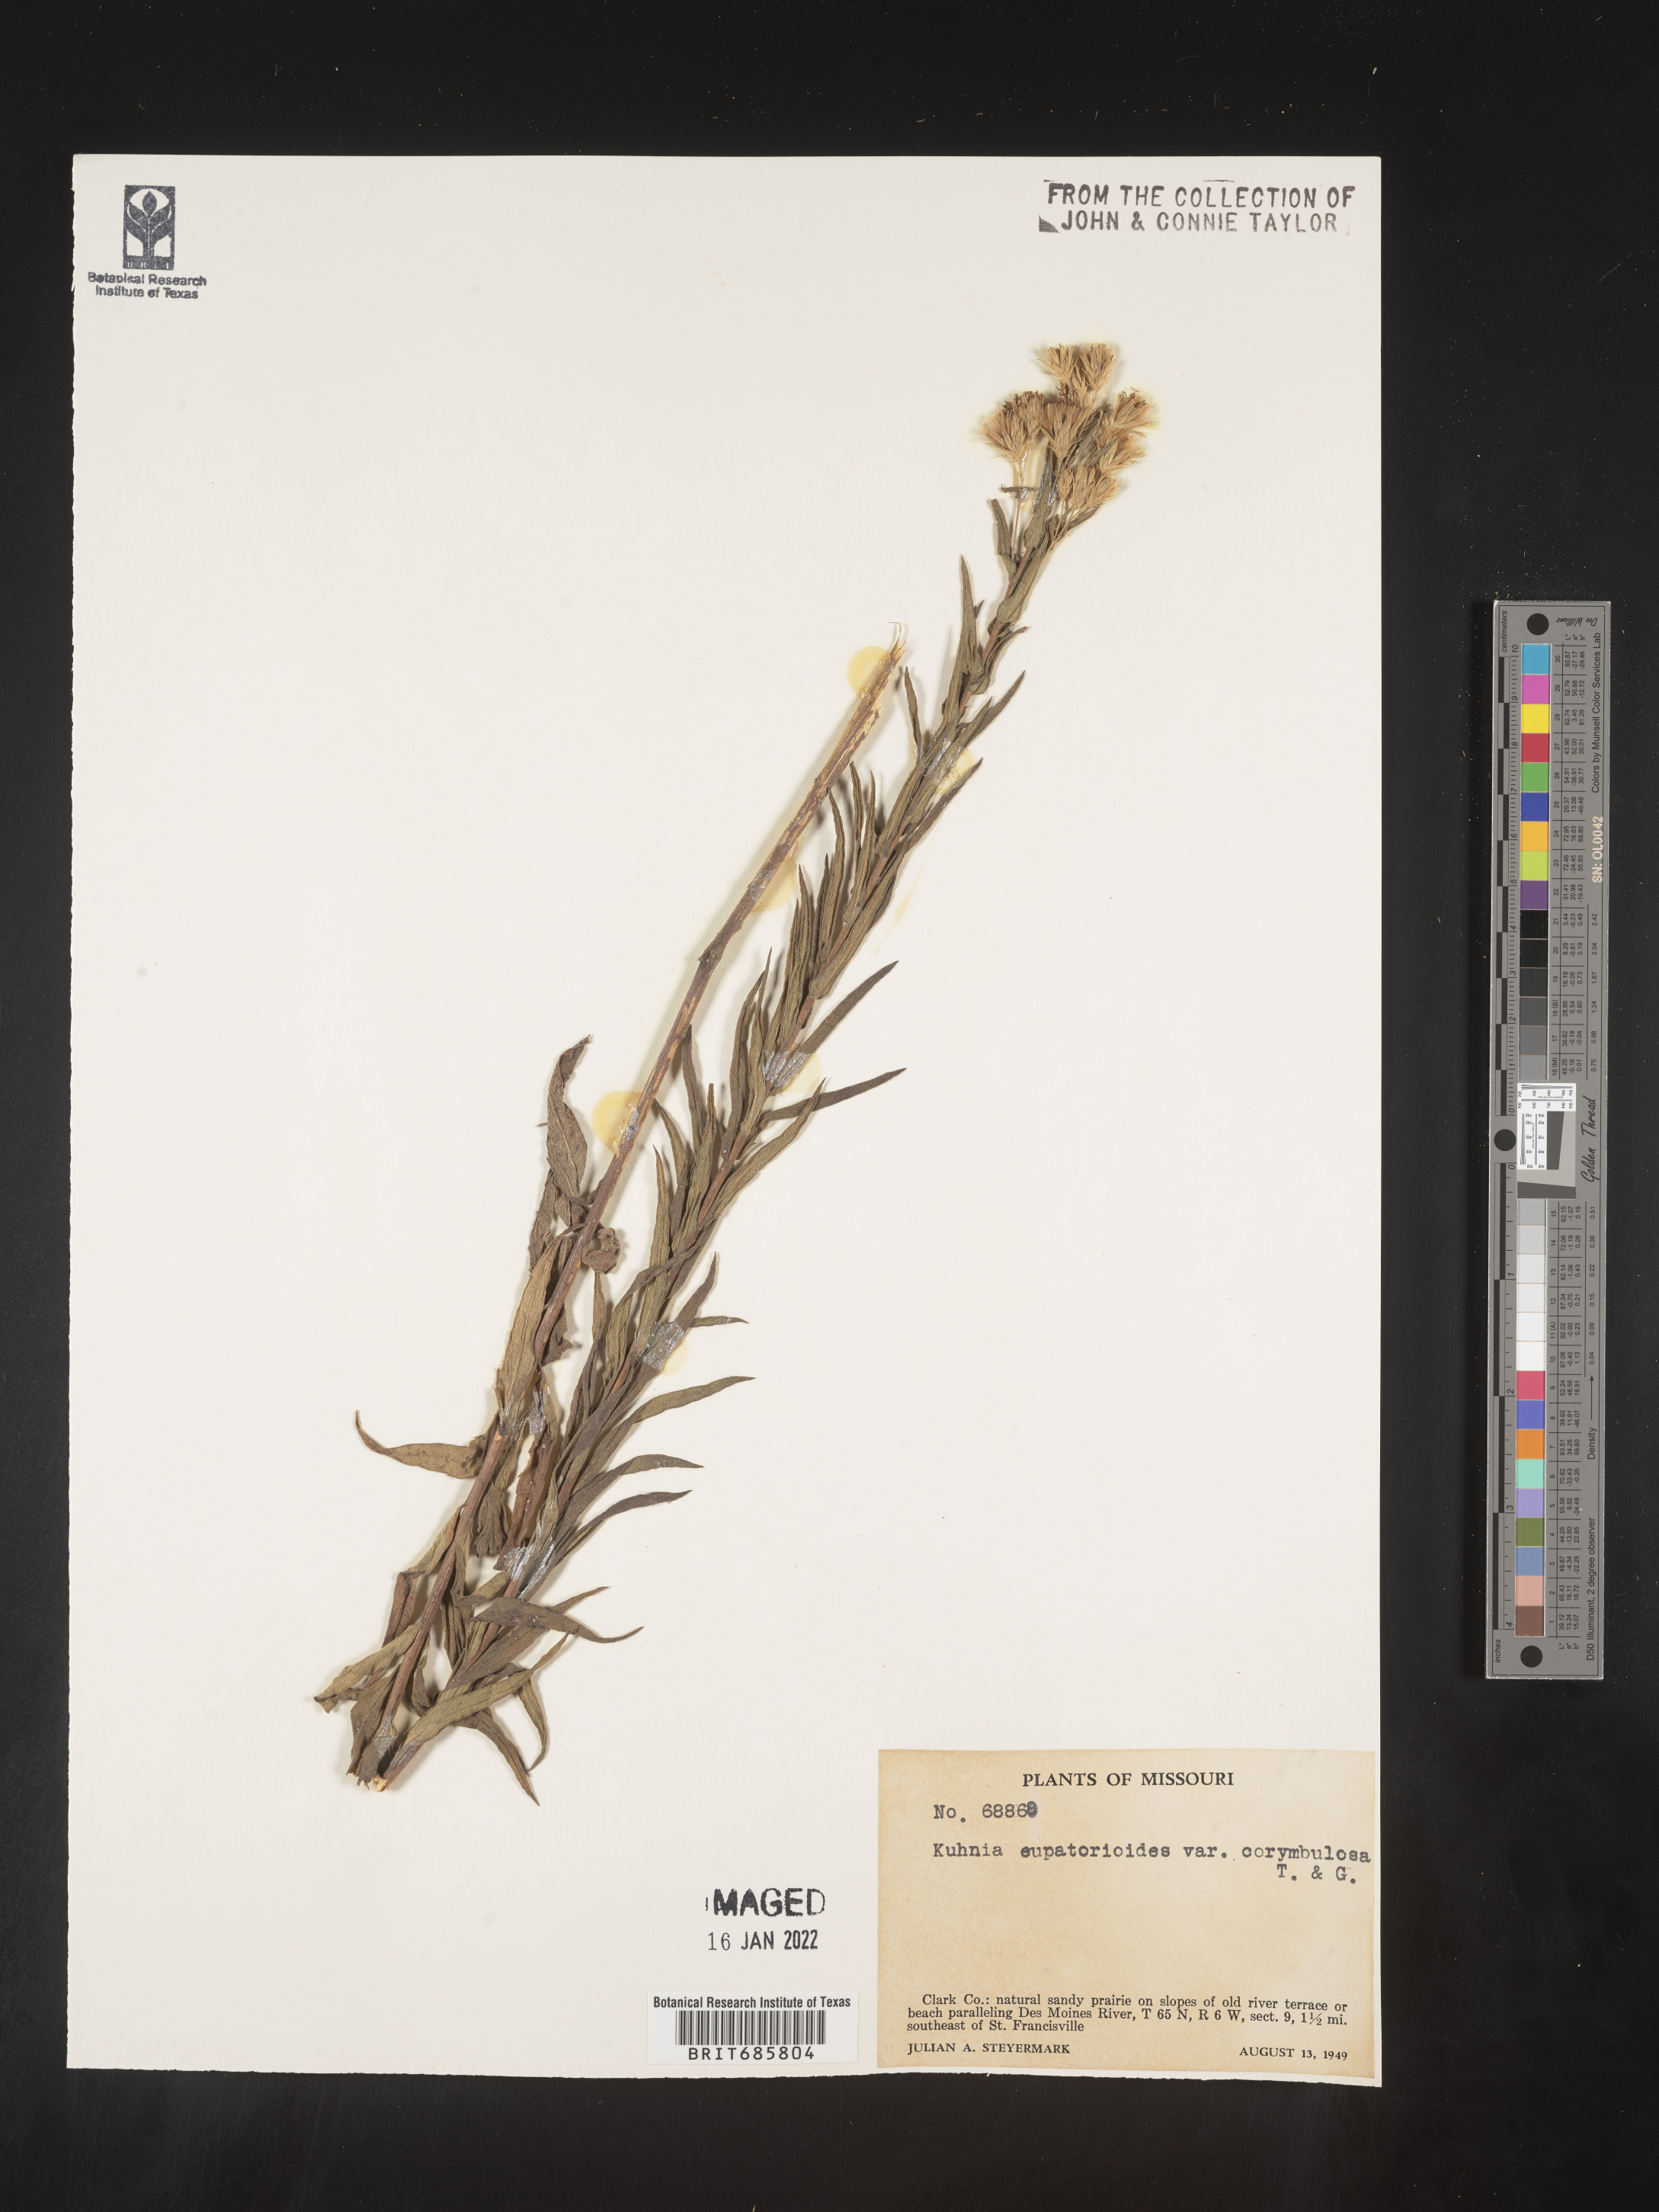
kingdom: Plantae
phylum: Tracheophyta
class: Magnoliopsida
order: Asterales
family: Asteraceae
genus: Brickellia
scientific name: Brickellia eupatorioides
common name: False boneset
